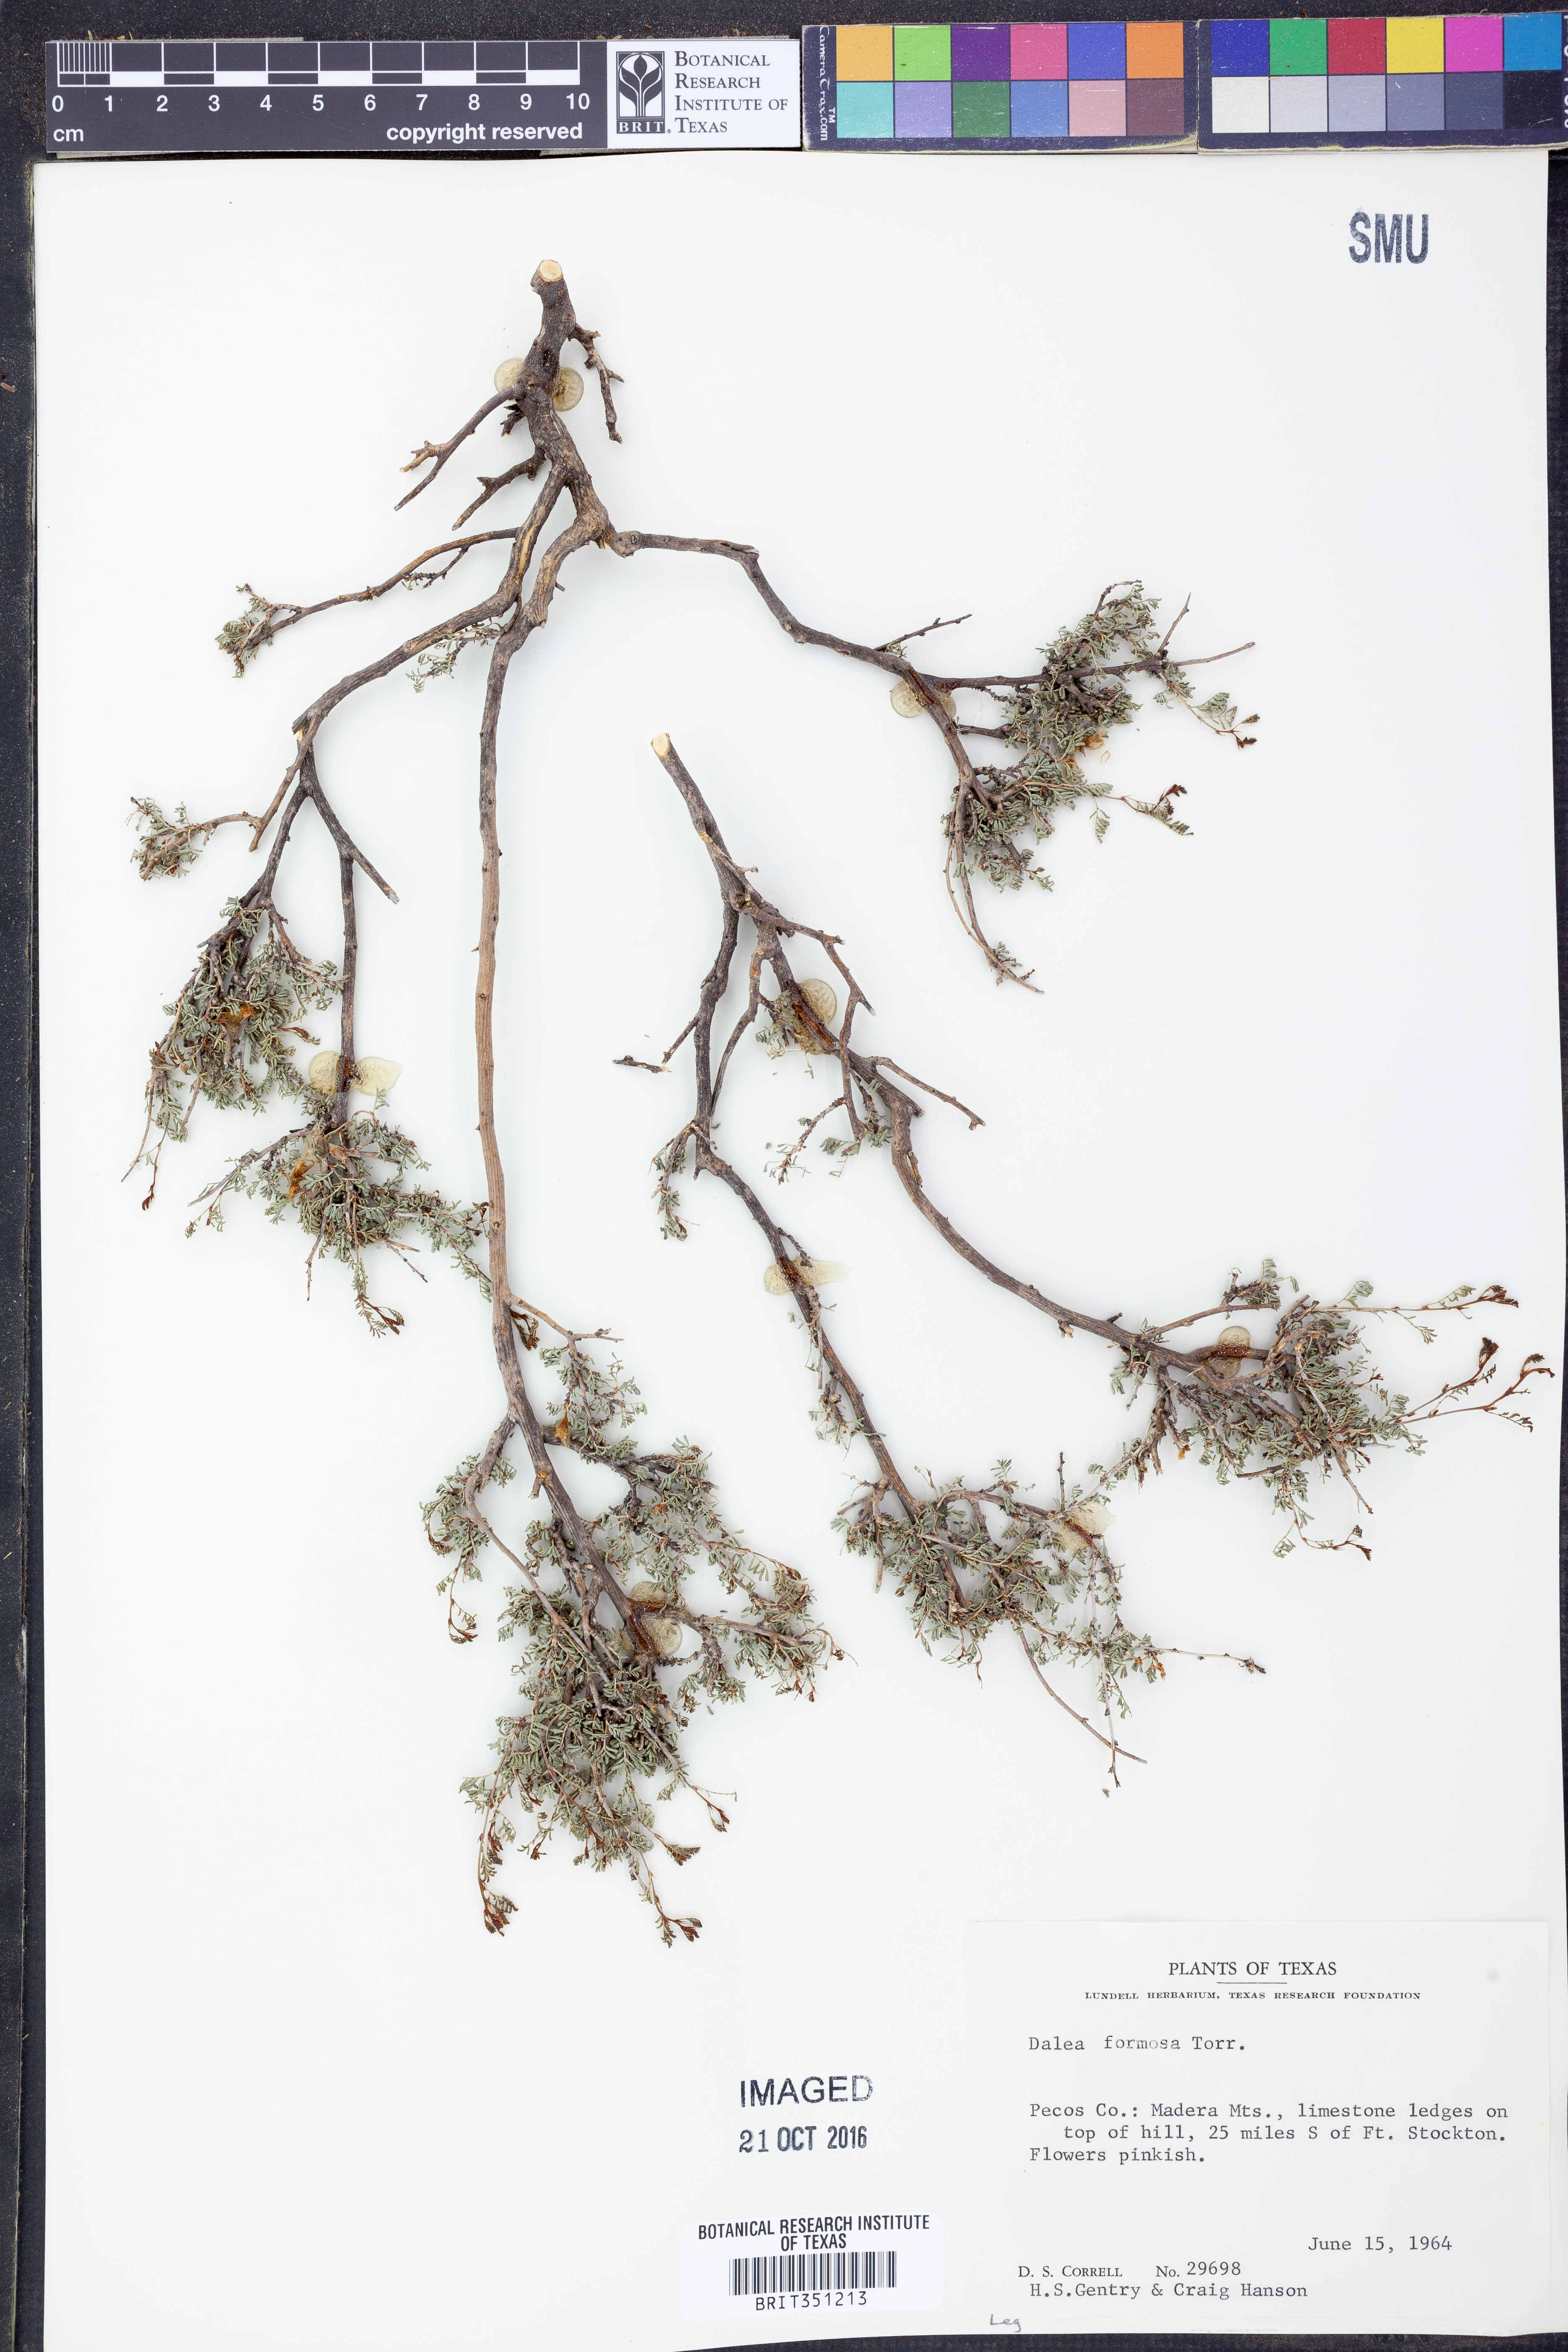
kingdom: Plantae
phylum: Tracheophyta
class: Magnoliopsida
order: Fabales
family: Fabaceae
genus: Dalea
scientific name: Dalea formosa
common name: Feather-plume dalea
